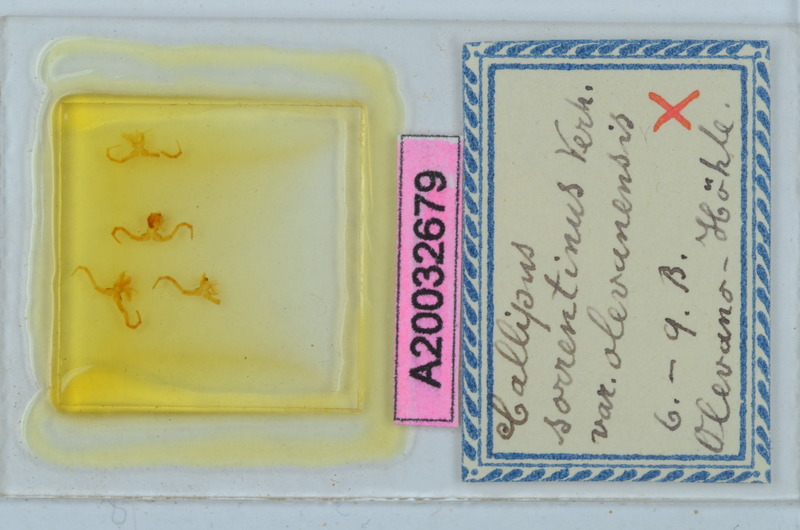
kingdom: Animalia
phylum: Arthropoda
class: Diplopoda
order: Callipodida
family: Callipodidae
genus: Callipus
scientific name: Callipus foetidissimus
